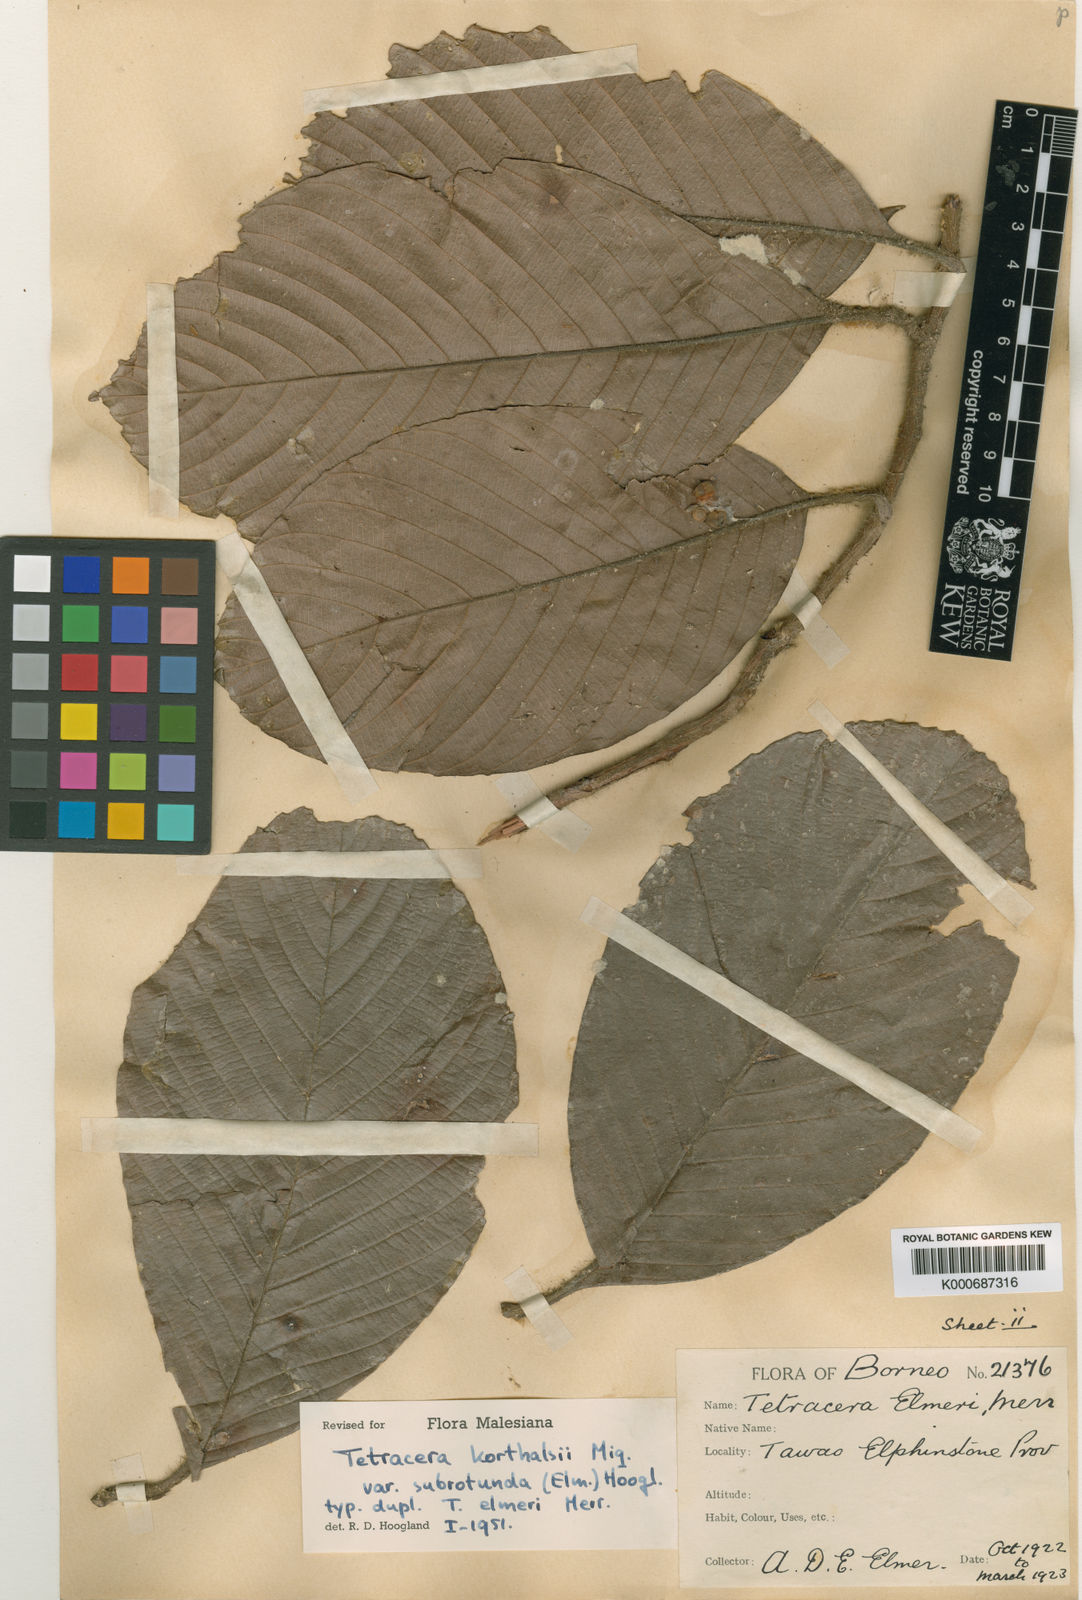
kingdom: Plantae
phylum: Tracheophyta
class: Magnoliopsida
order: Dilleniales
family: Dilleniaceae
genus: Tetracera
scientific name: Tetracera korthalsii
